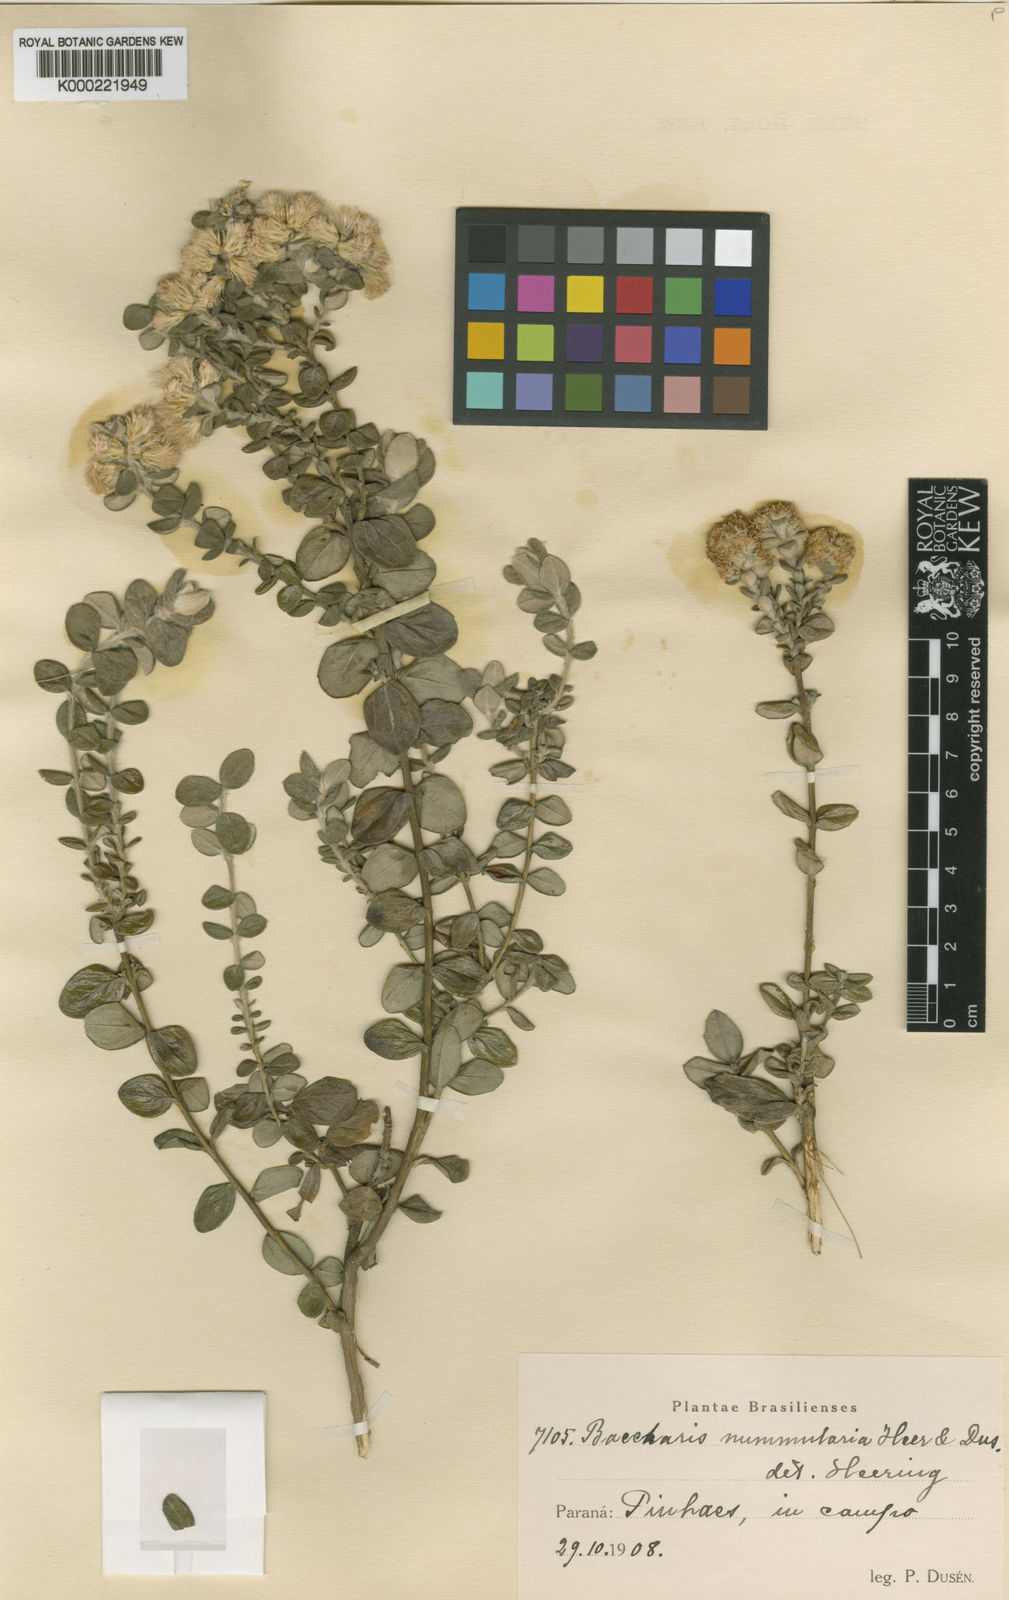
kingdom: Plantae
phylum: Tracheophyta
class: Magnoliopsida
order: Asterales
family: Asteraceae
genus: Baccharis
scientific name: Baccharis
